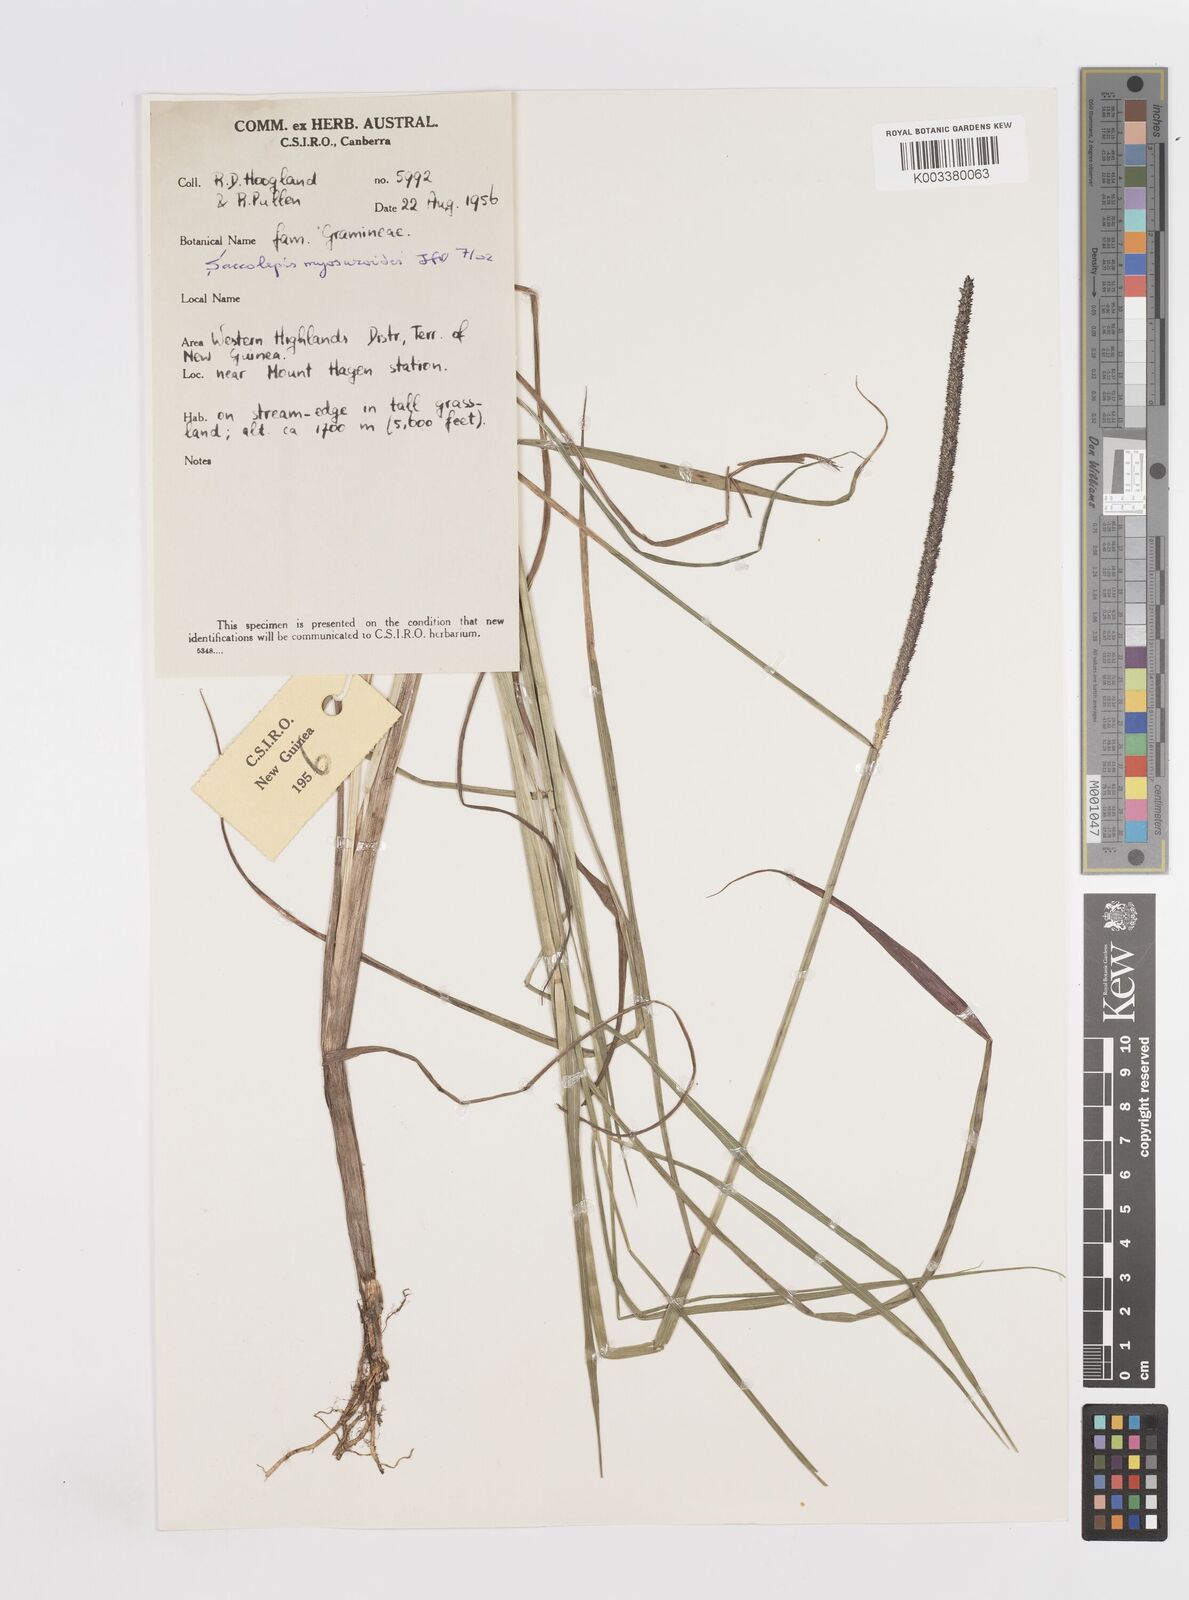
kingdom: Plantae
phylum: Tracheophyta
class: Liliopsida
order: Poales
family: Poaceae
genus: Sacciolepis
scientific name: Sacciolepis myosuroides
